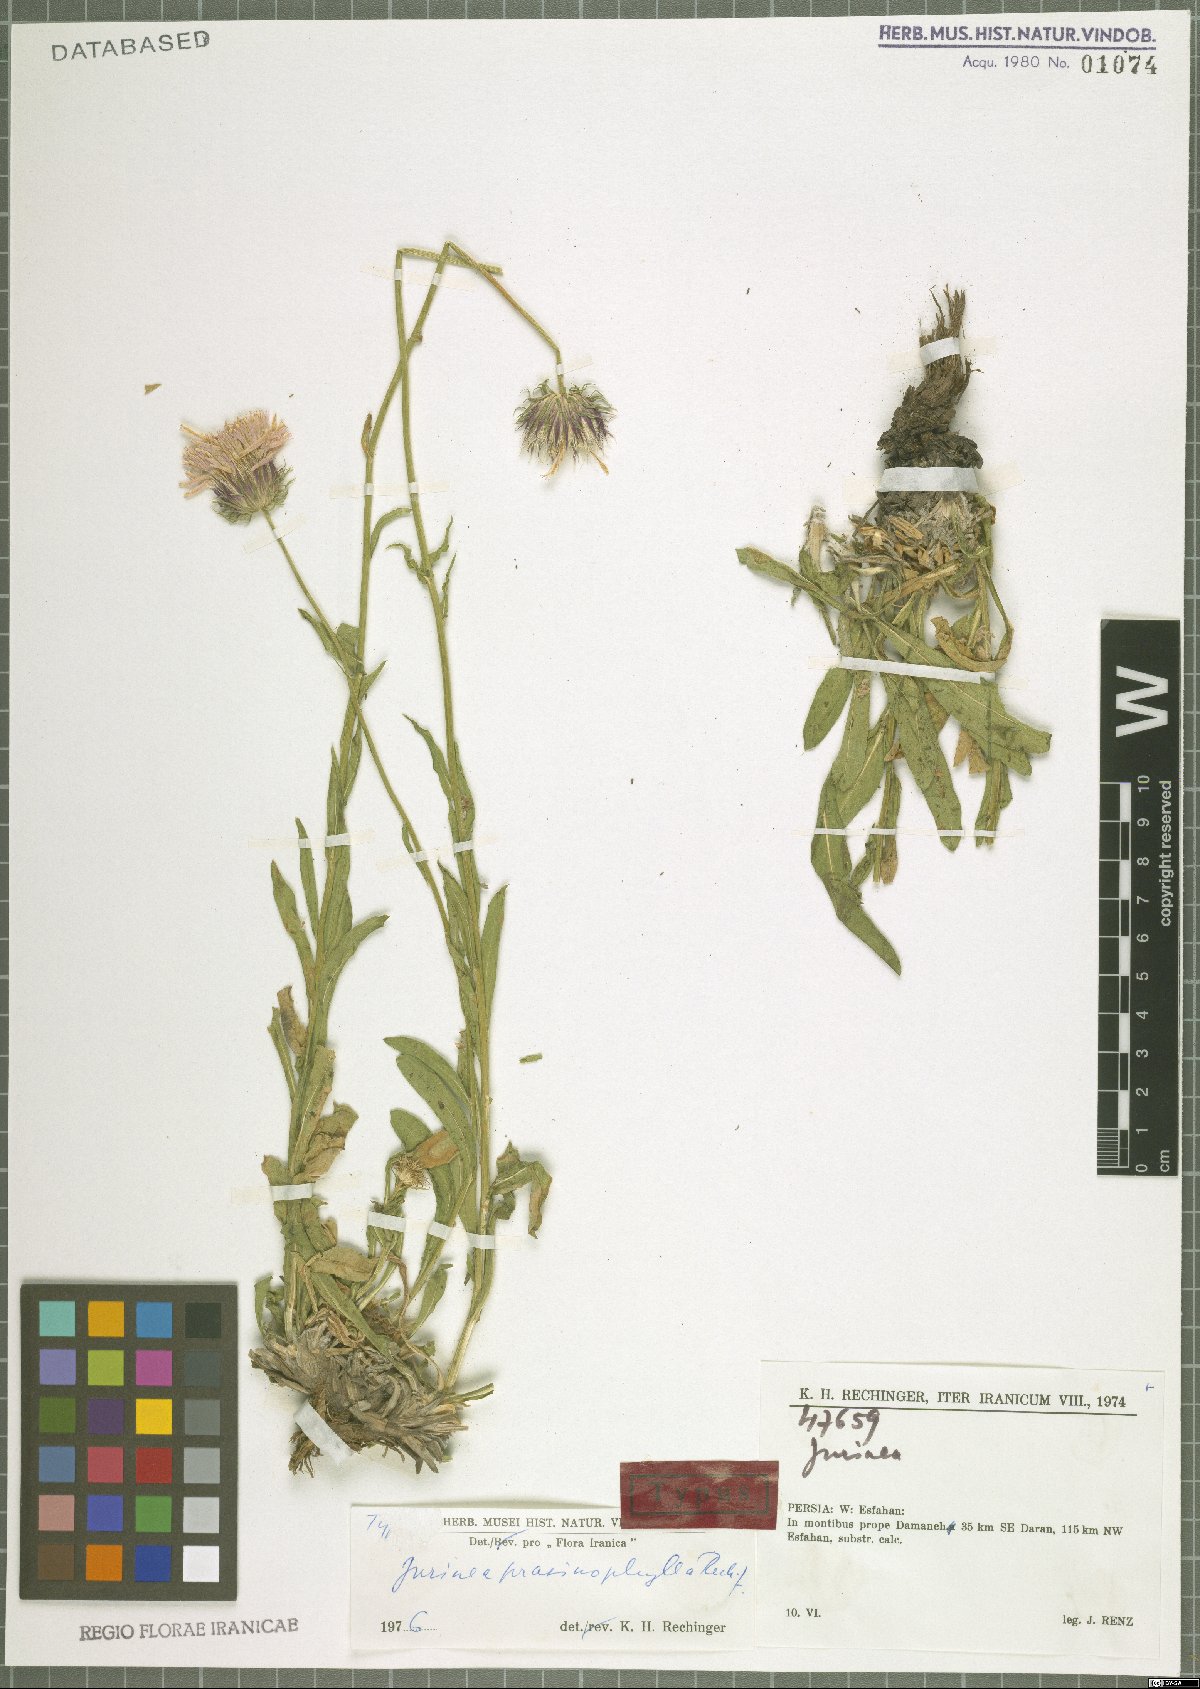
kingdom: Plantae
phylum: Tracheophyta
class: Magnoliopsida
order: Asterales
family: Asteraceae
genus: Jurinea
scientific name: Jurinea prasinophylla
